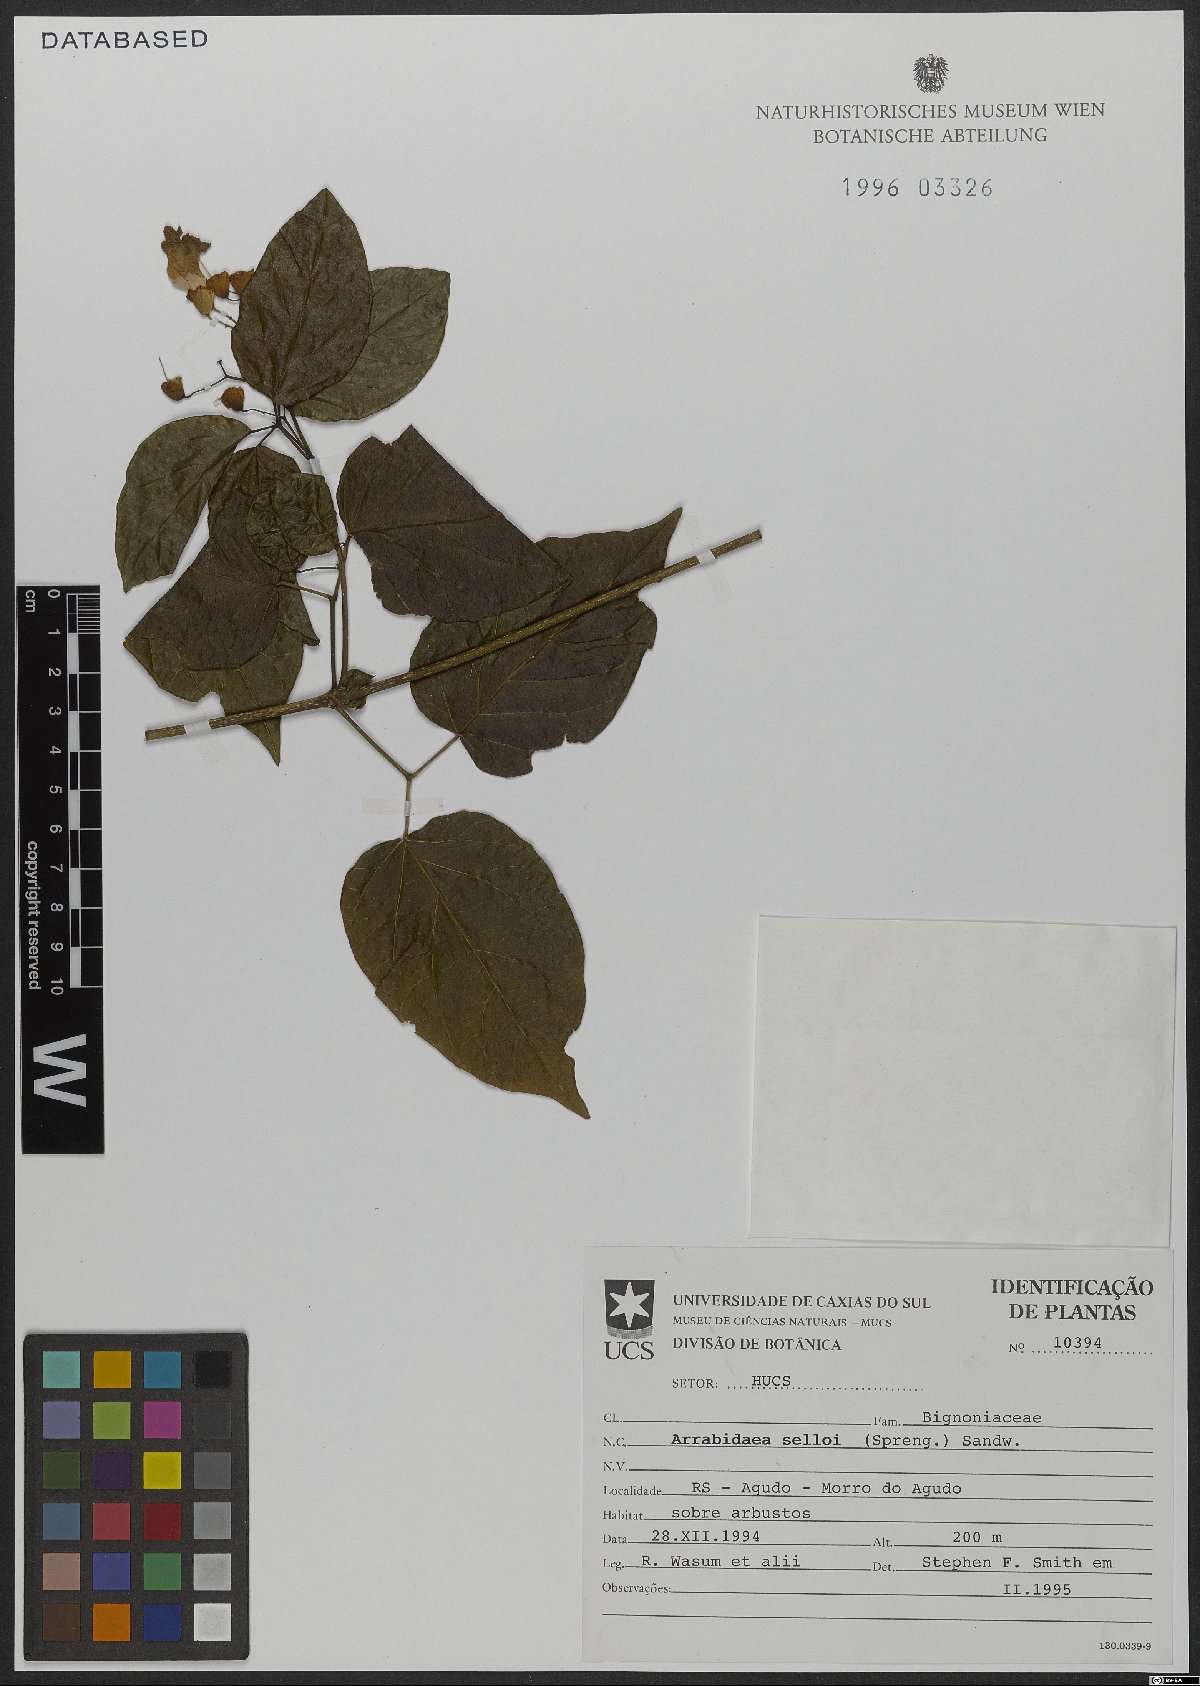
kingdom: Plantae
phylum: Tracheophyta
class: Magnoliopsida
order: Lamiales
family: Bignoniaceae
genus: Tanaecium
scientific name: Tanaecium selloi
